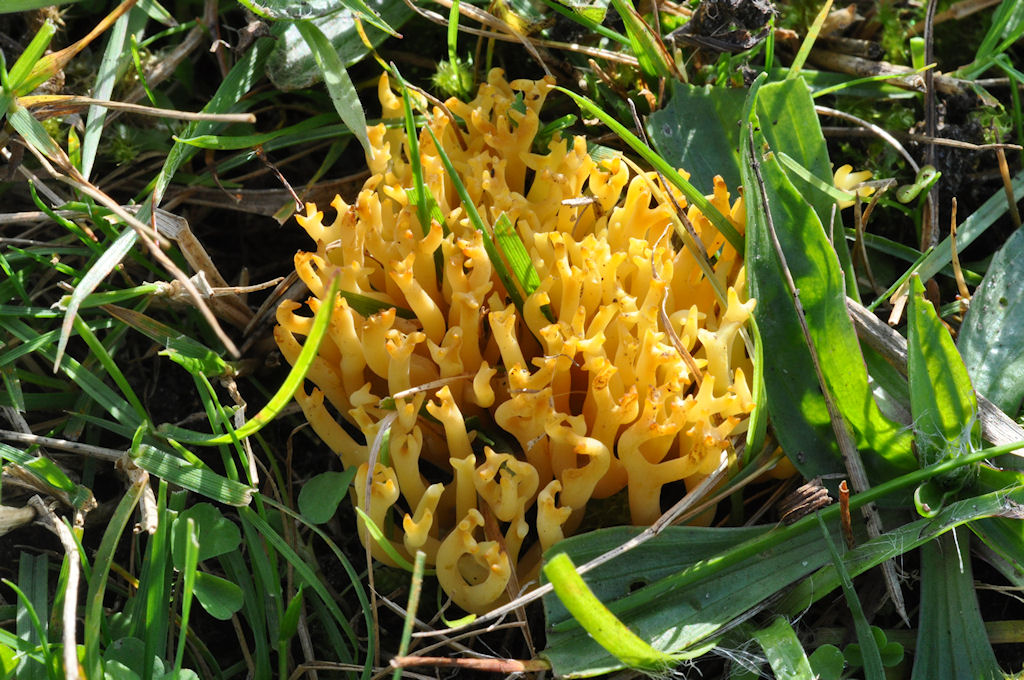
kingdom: Fungi
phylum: Basidiomycota
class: Agaricomycetes
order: Agaricales
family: Clavariaceae
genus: Clavulinopsis
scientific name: Clavulinopsis corniculata
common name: eng-køllesvamp
